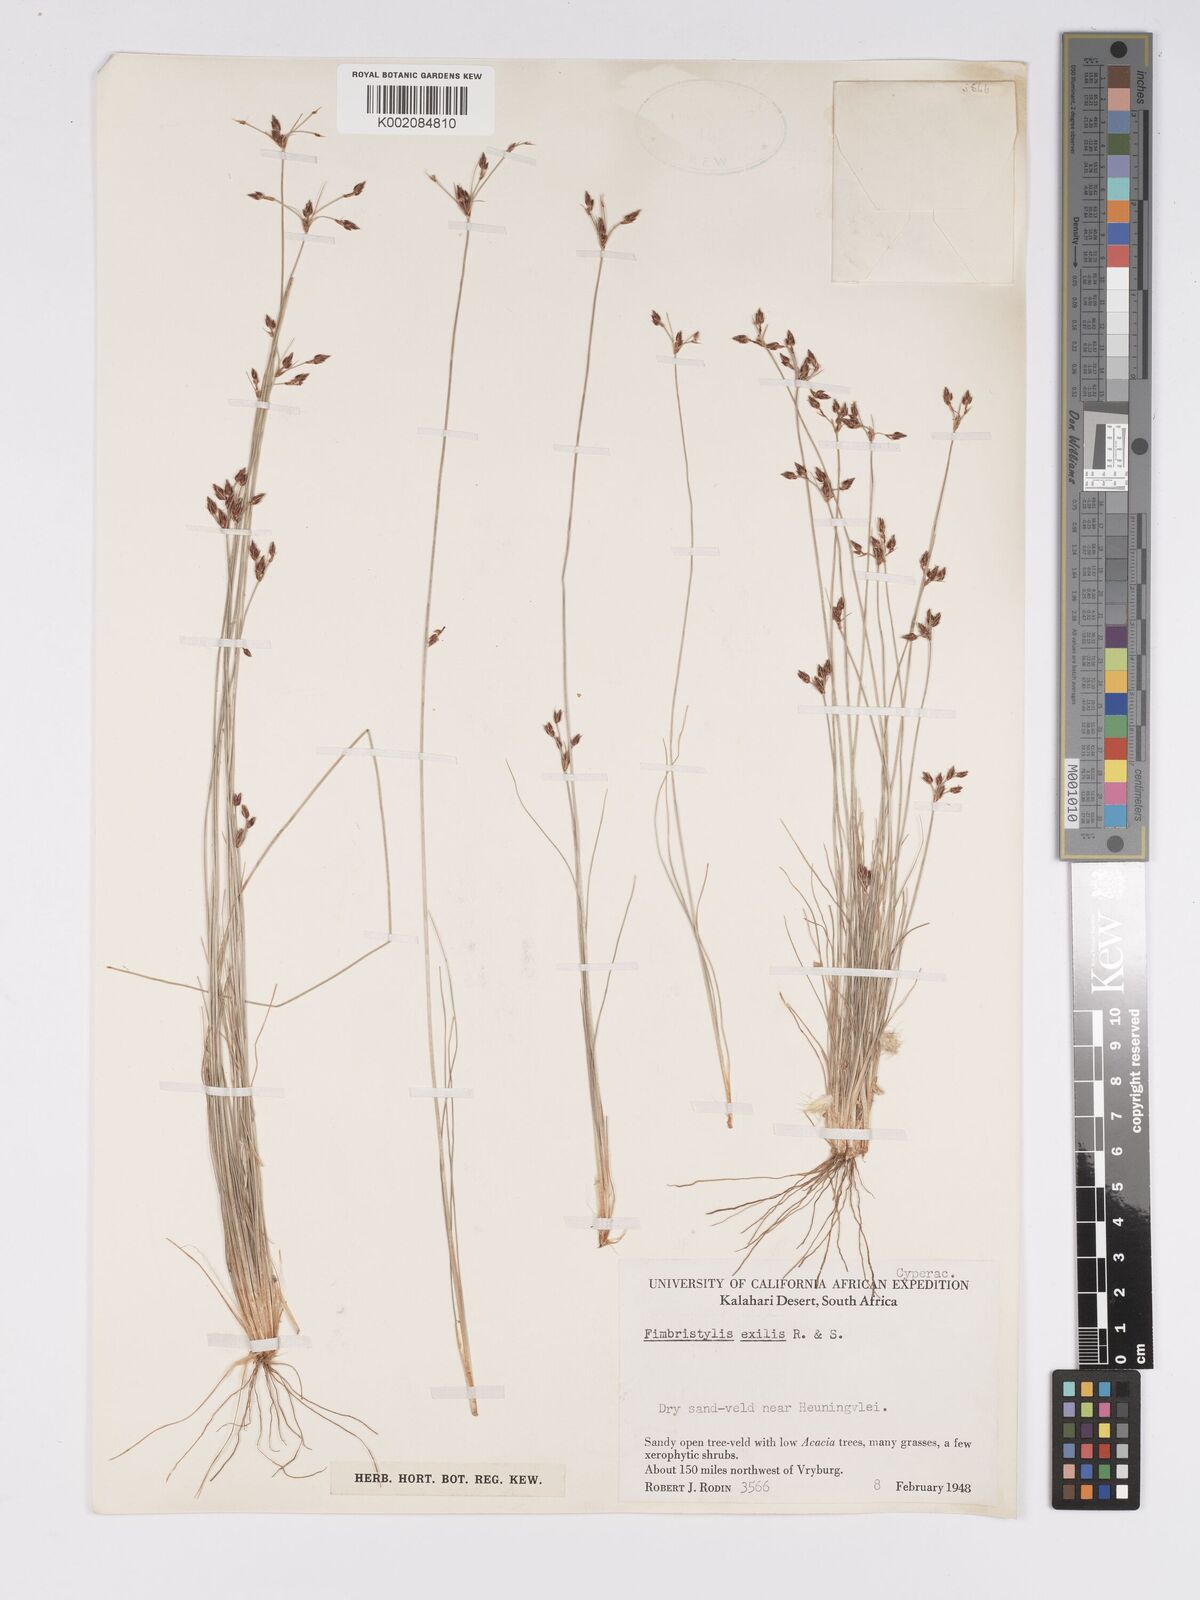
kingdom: Plantae
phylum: Tracheophyta
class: Liliopsida
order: Poales
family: Cyperaceae
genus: Bulbostylis
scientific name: Bulbostylis hispidula
